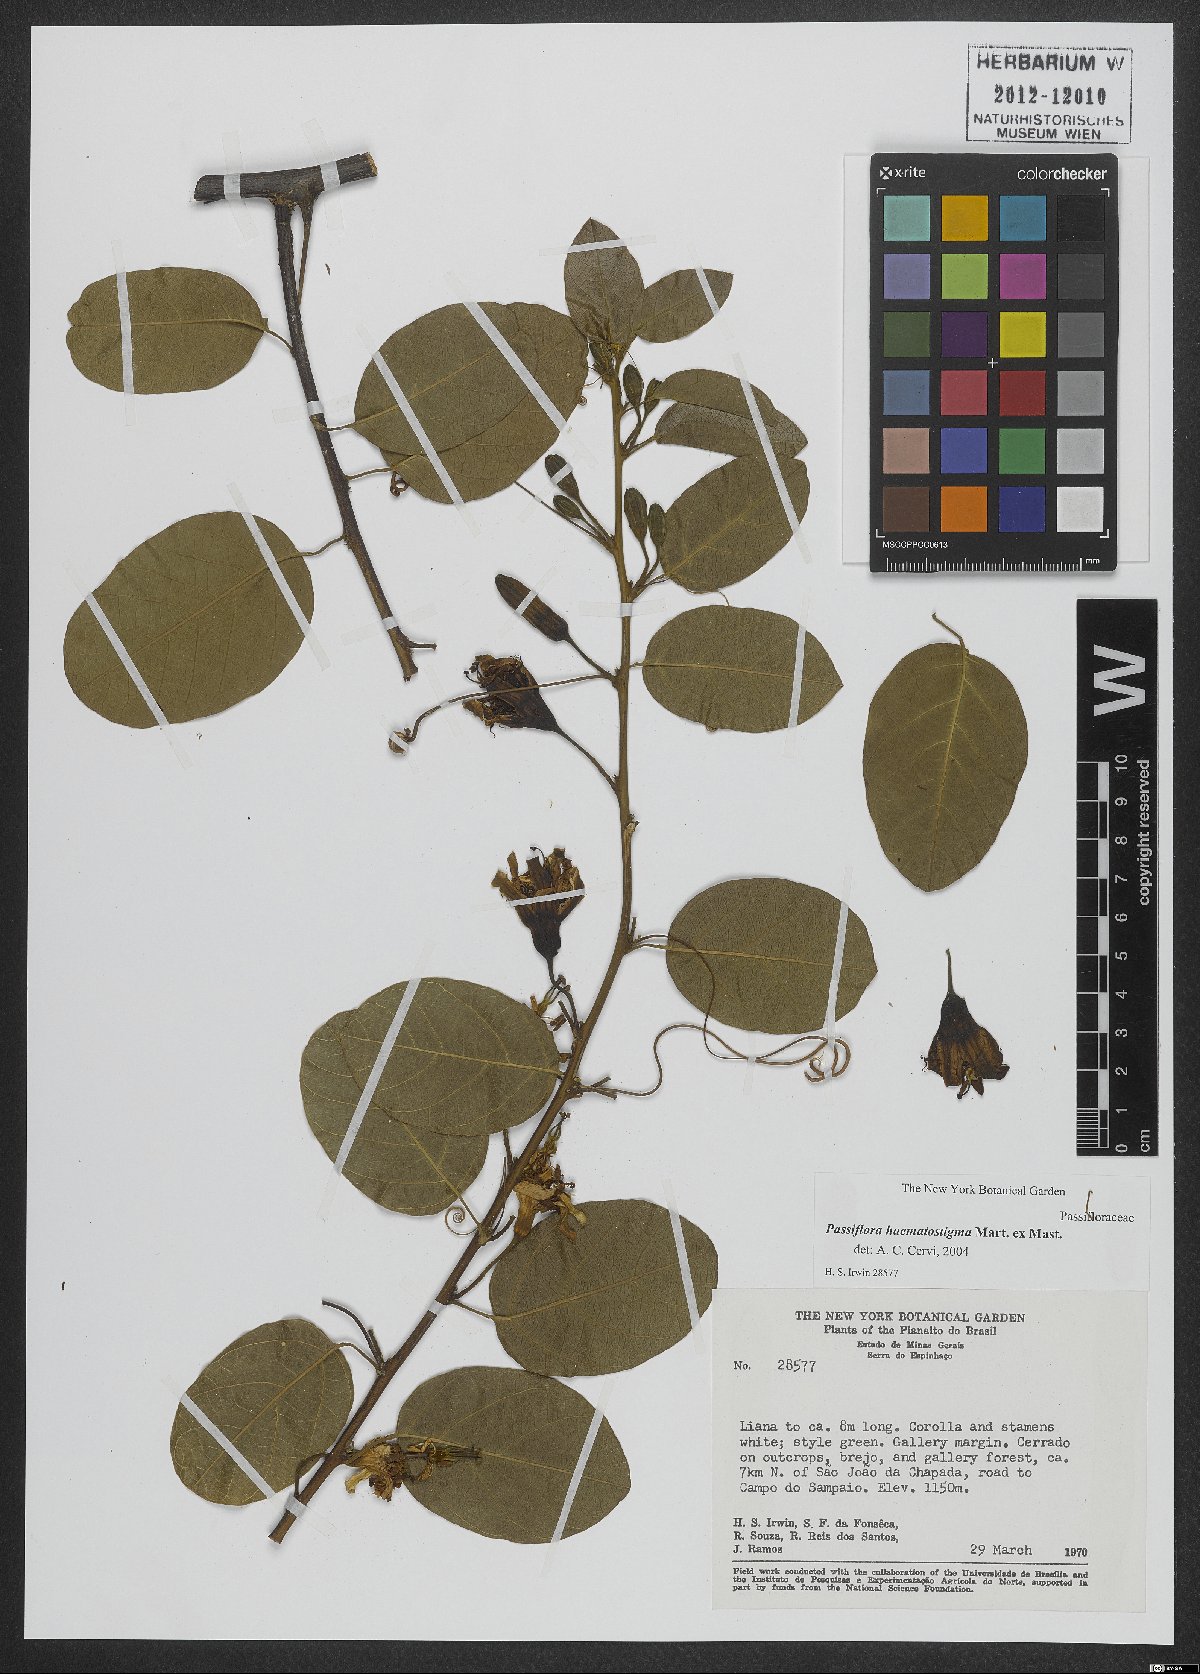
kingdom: Plantae
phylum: Tracheophyta
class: Magnoliopsida
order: Malpighiales
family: Passifloraceae
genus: Passiflora
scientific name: Passiflora haematostigma
